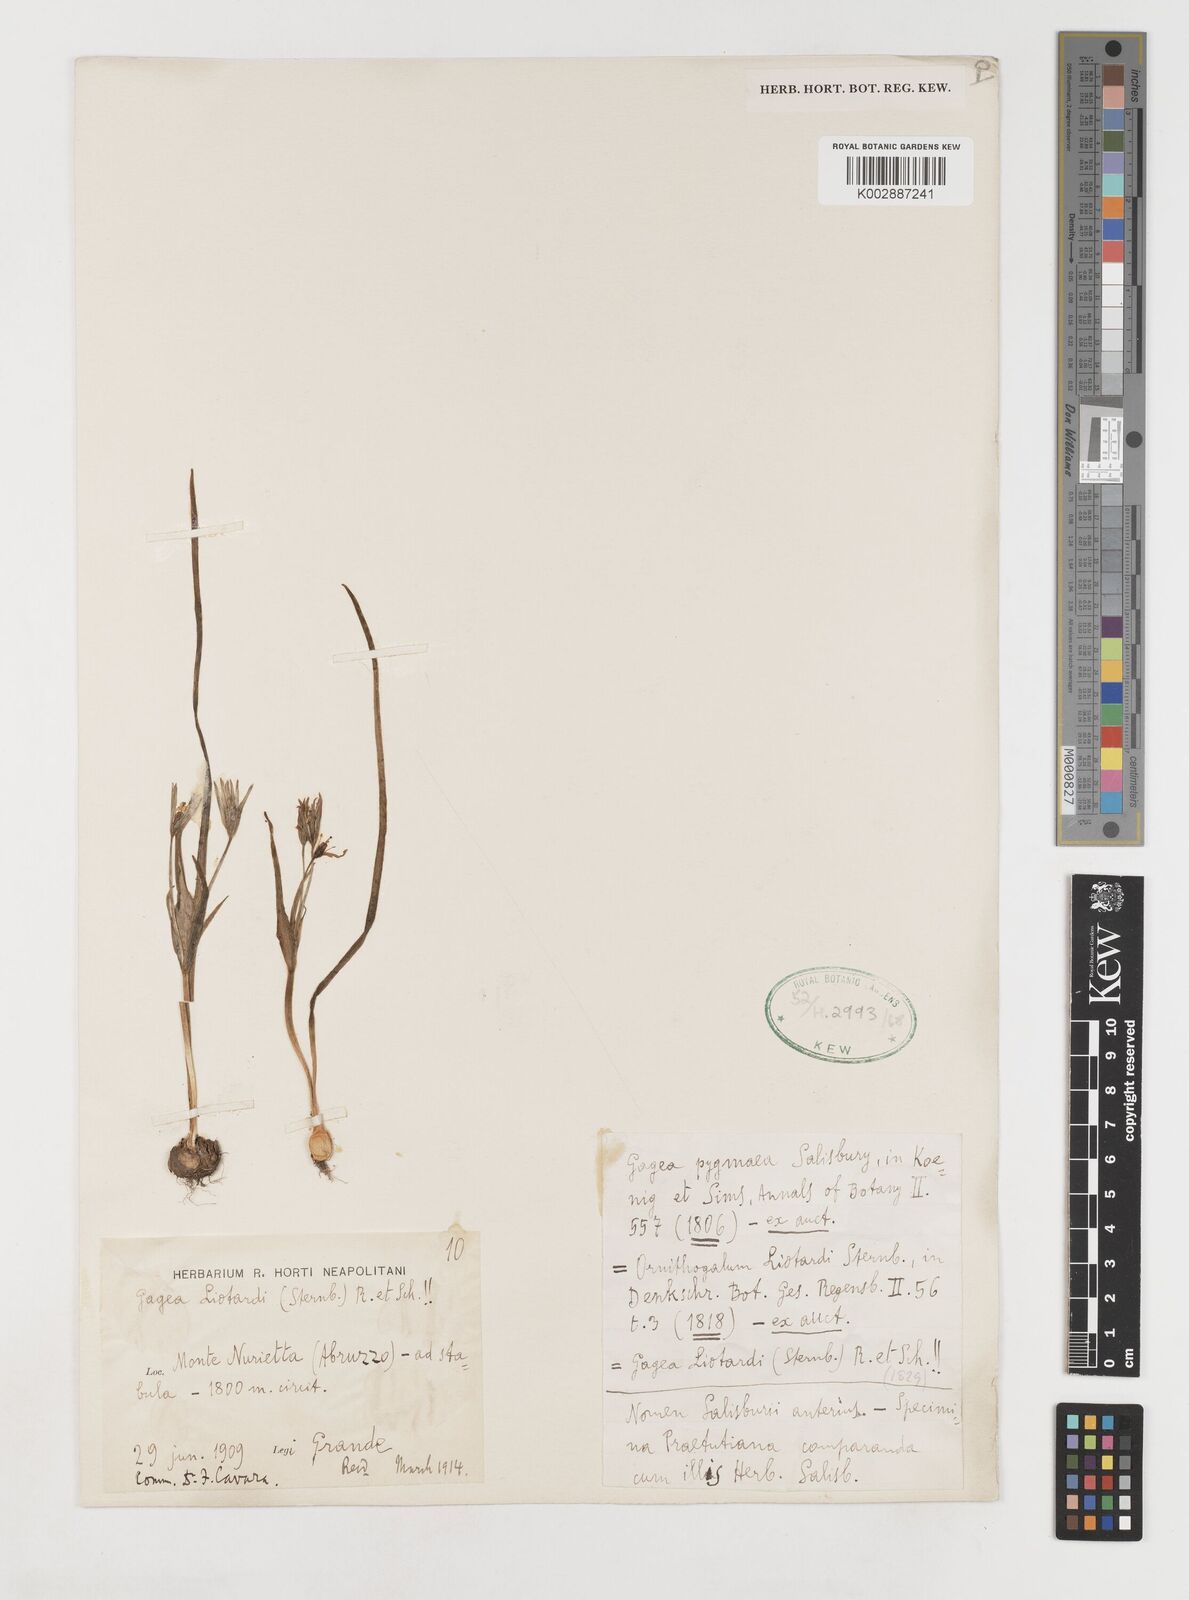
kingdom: Plantae
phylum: Tracheophyta
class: Liliopsida
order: Liliales
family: Liliaceae
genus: Gagea
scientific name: Gagea bohemica
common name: Early star-of-bethlehem
